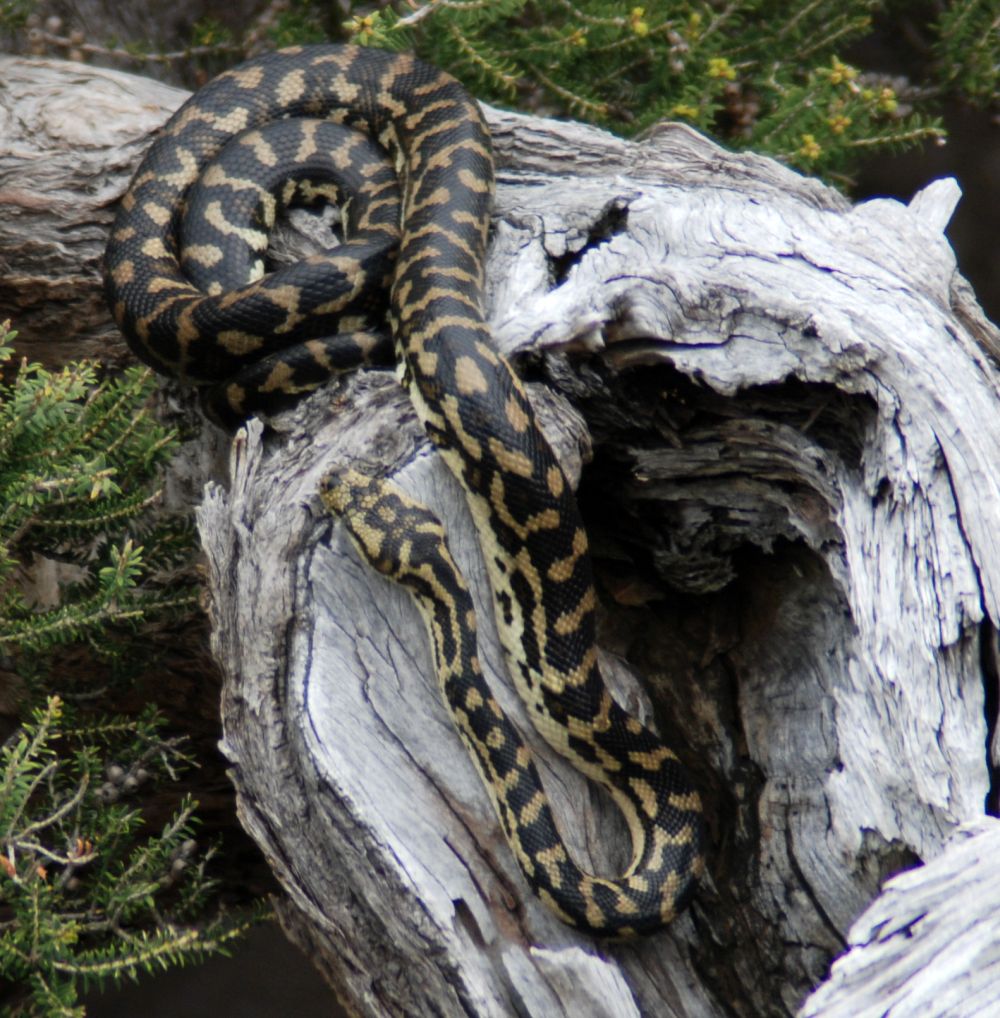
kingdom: Animalia
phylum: Chordata
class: Squamata
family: Pythonidae
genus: Morelia
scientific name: Morelia imbricata
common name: Carpet python
